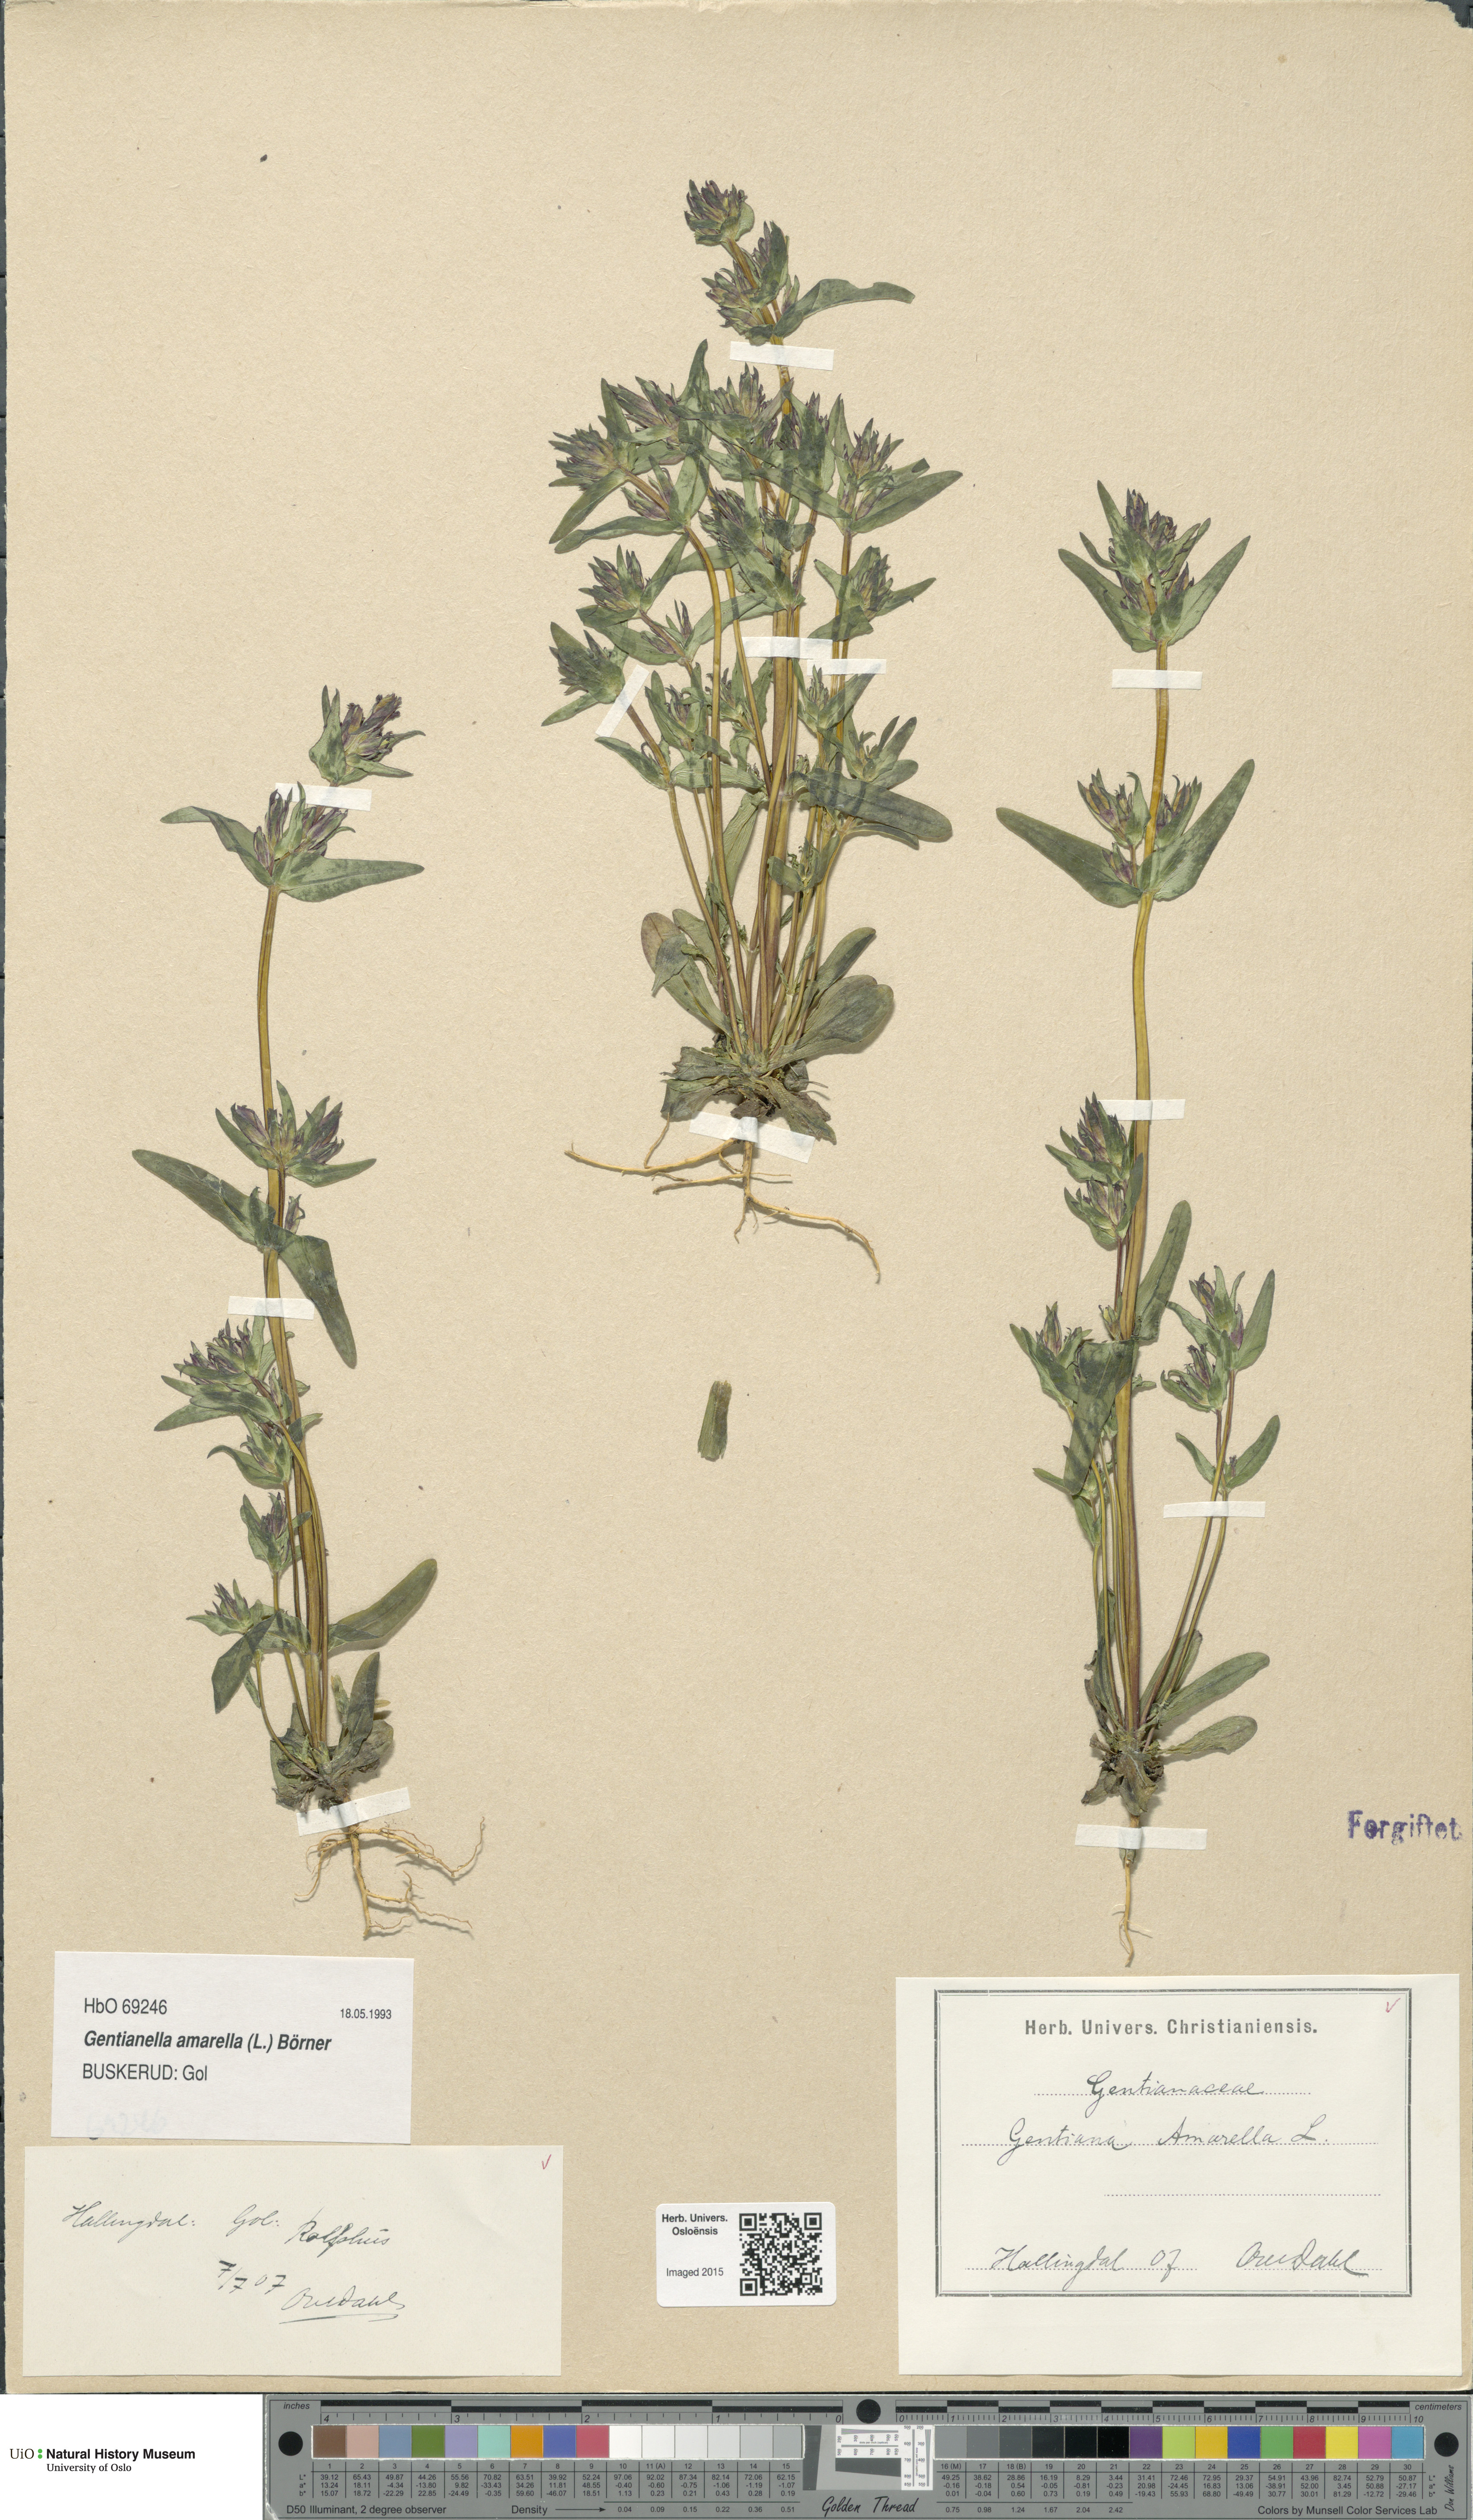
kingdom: Plantae
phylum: Tracheophyta
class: Magnoliopsida
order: Gentianales
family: Gentianaceae
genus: Gentianella
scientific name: Gentianella amarella
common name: Autumn gentian
